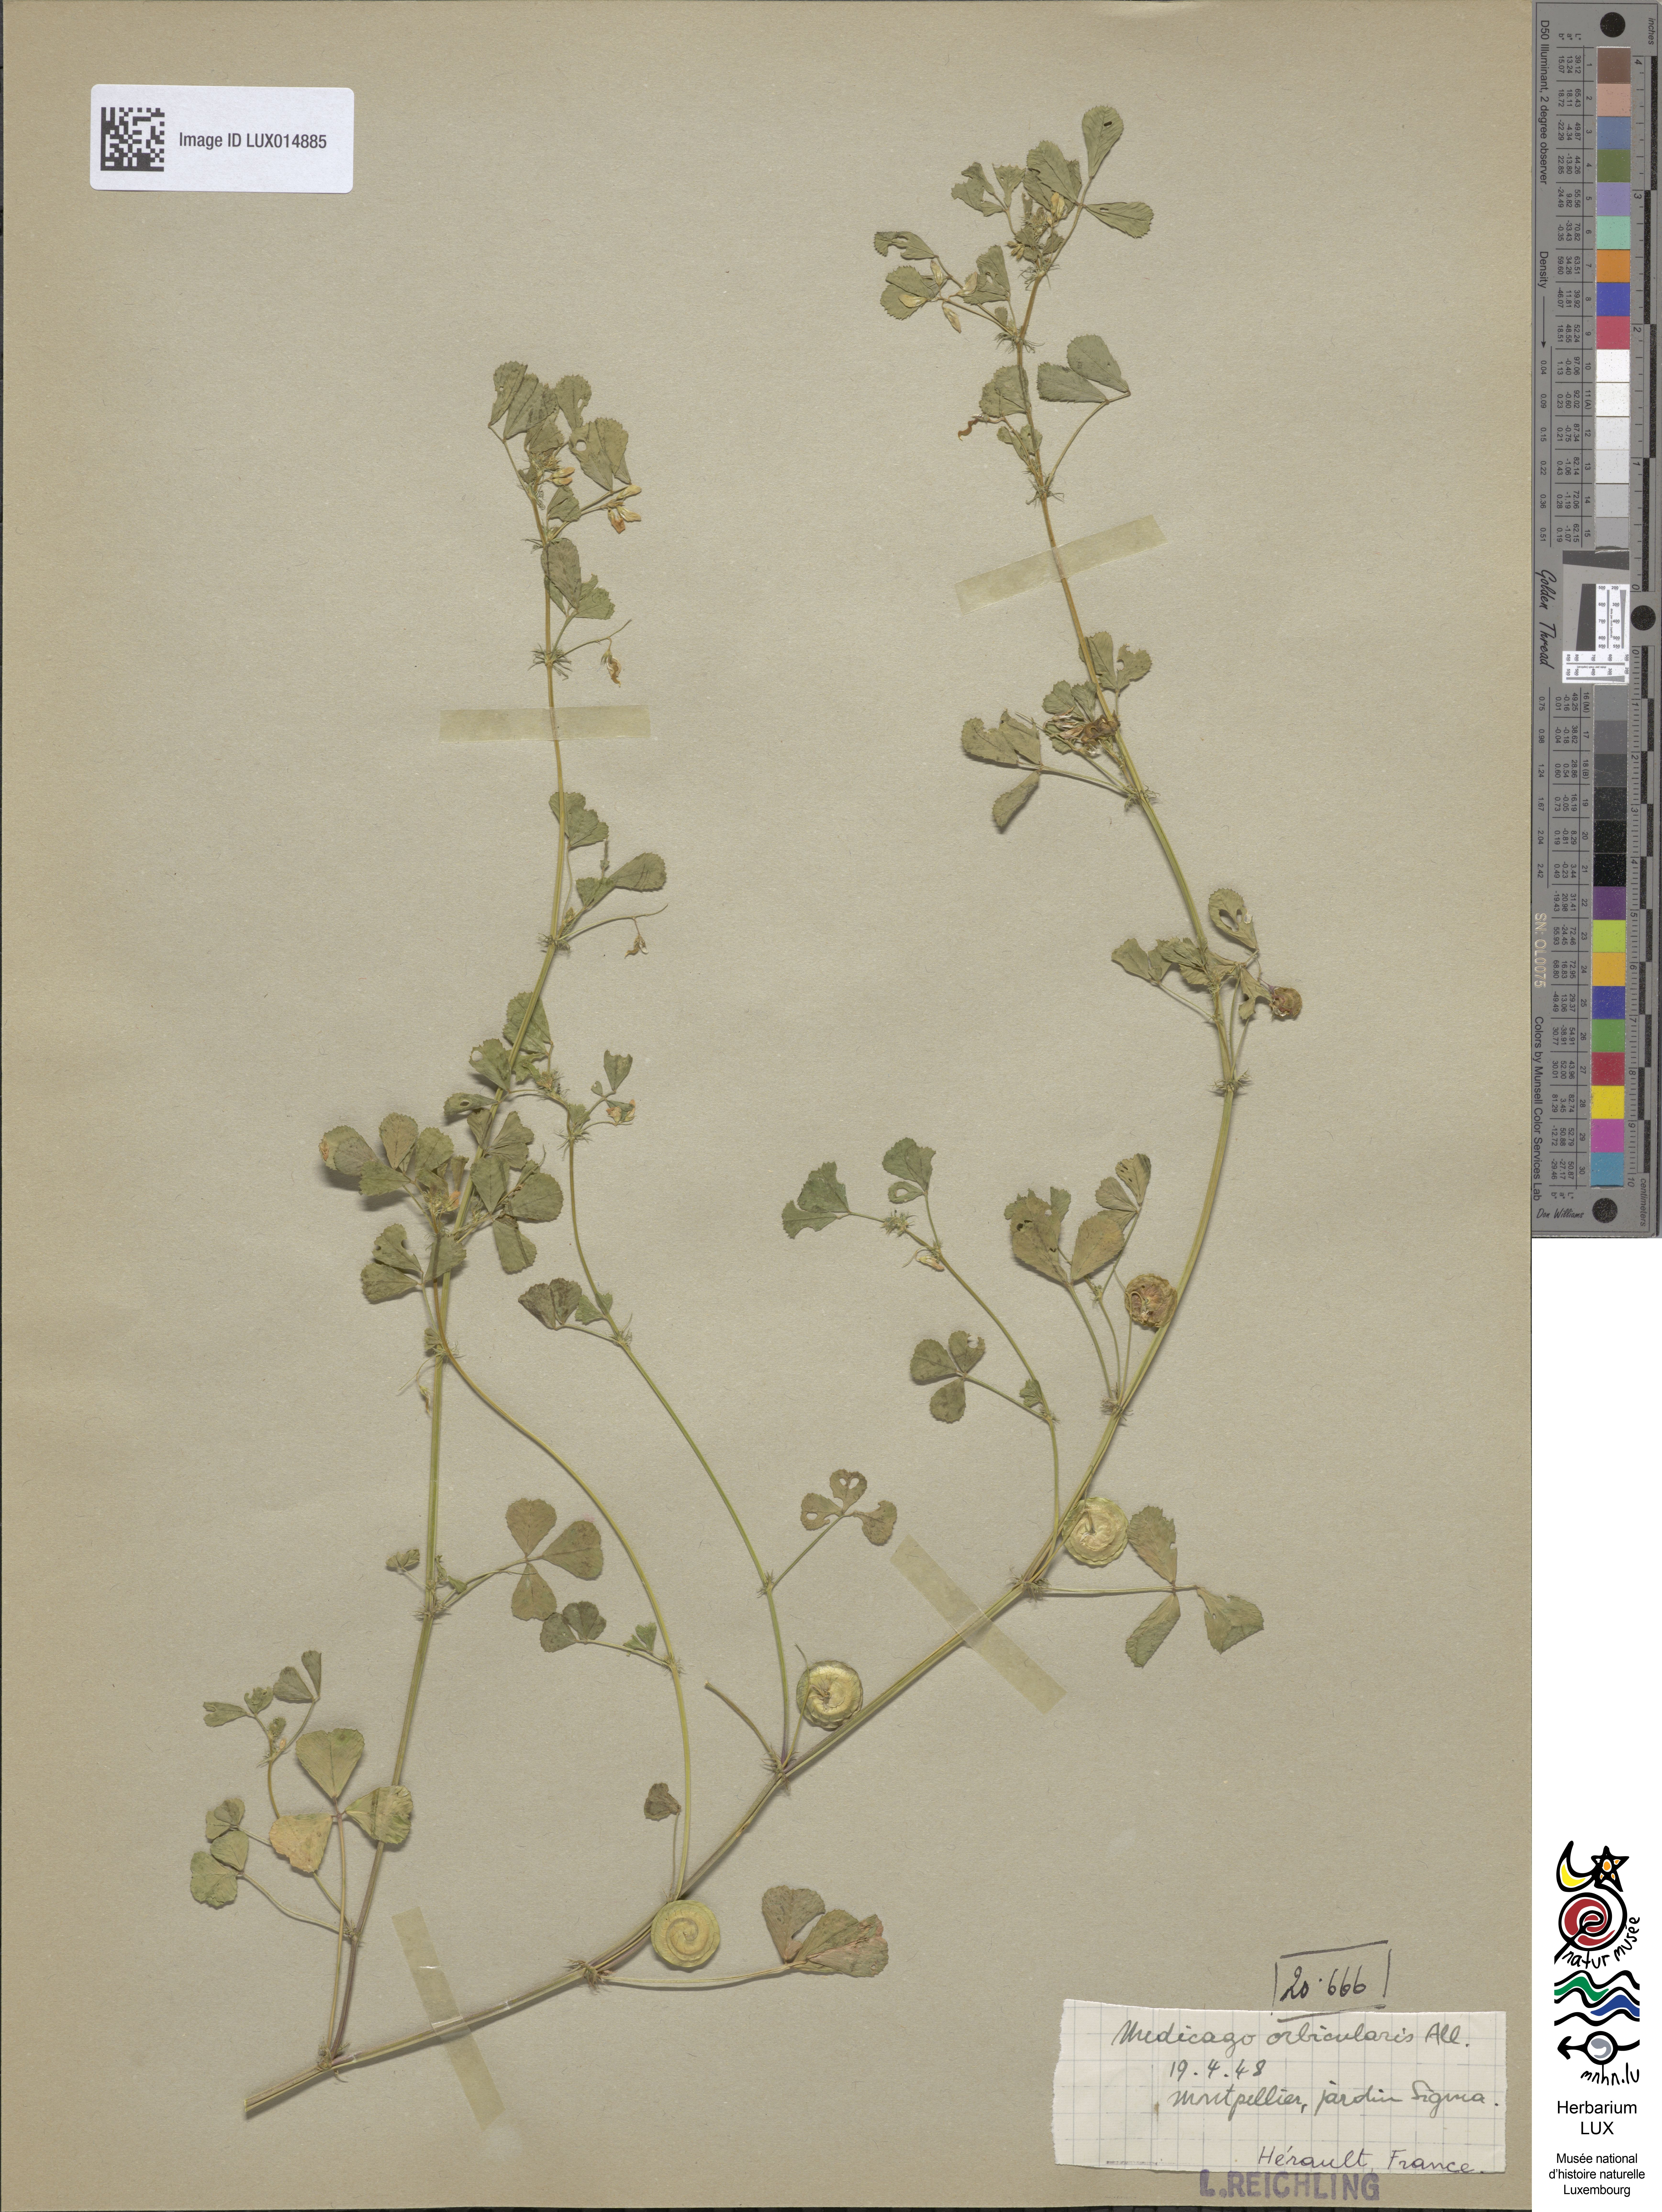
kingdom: Plantae
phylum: Tracheophyta
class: Magnoliopsida
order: Fabales
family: Fabaceae
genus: Medicago
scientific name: Medicago orbicularis
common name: Button medick
